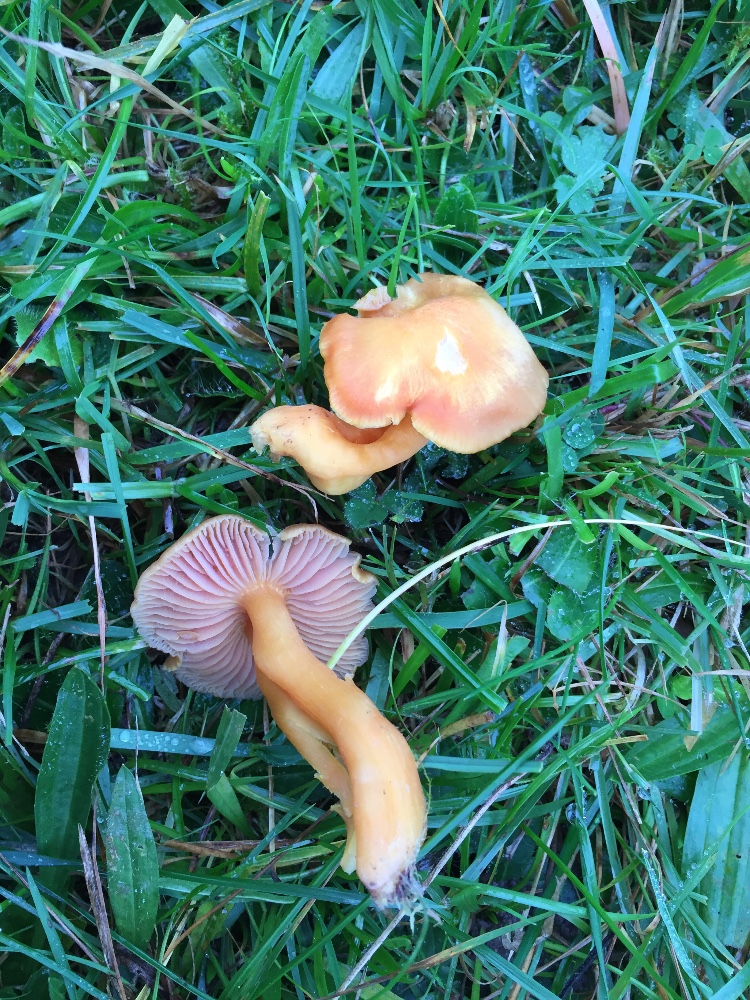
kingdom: Fungi
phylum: Basidiomycota
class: Agaricomycetes
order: Agaricales
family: Hygrophoraceae
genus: Hygrocybe
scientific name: Hygrocybe quieta
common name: tæge-vokshat
